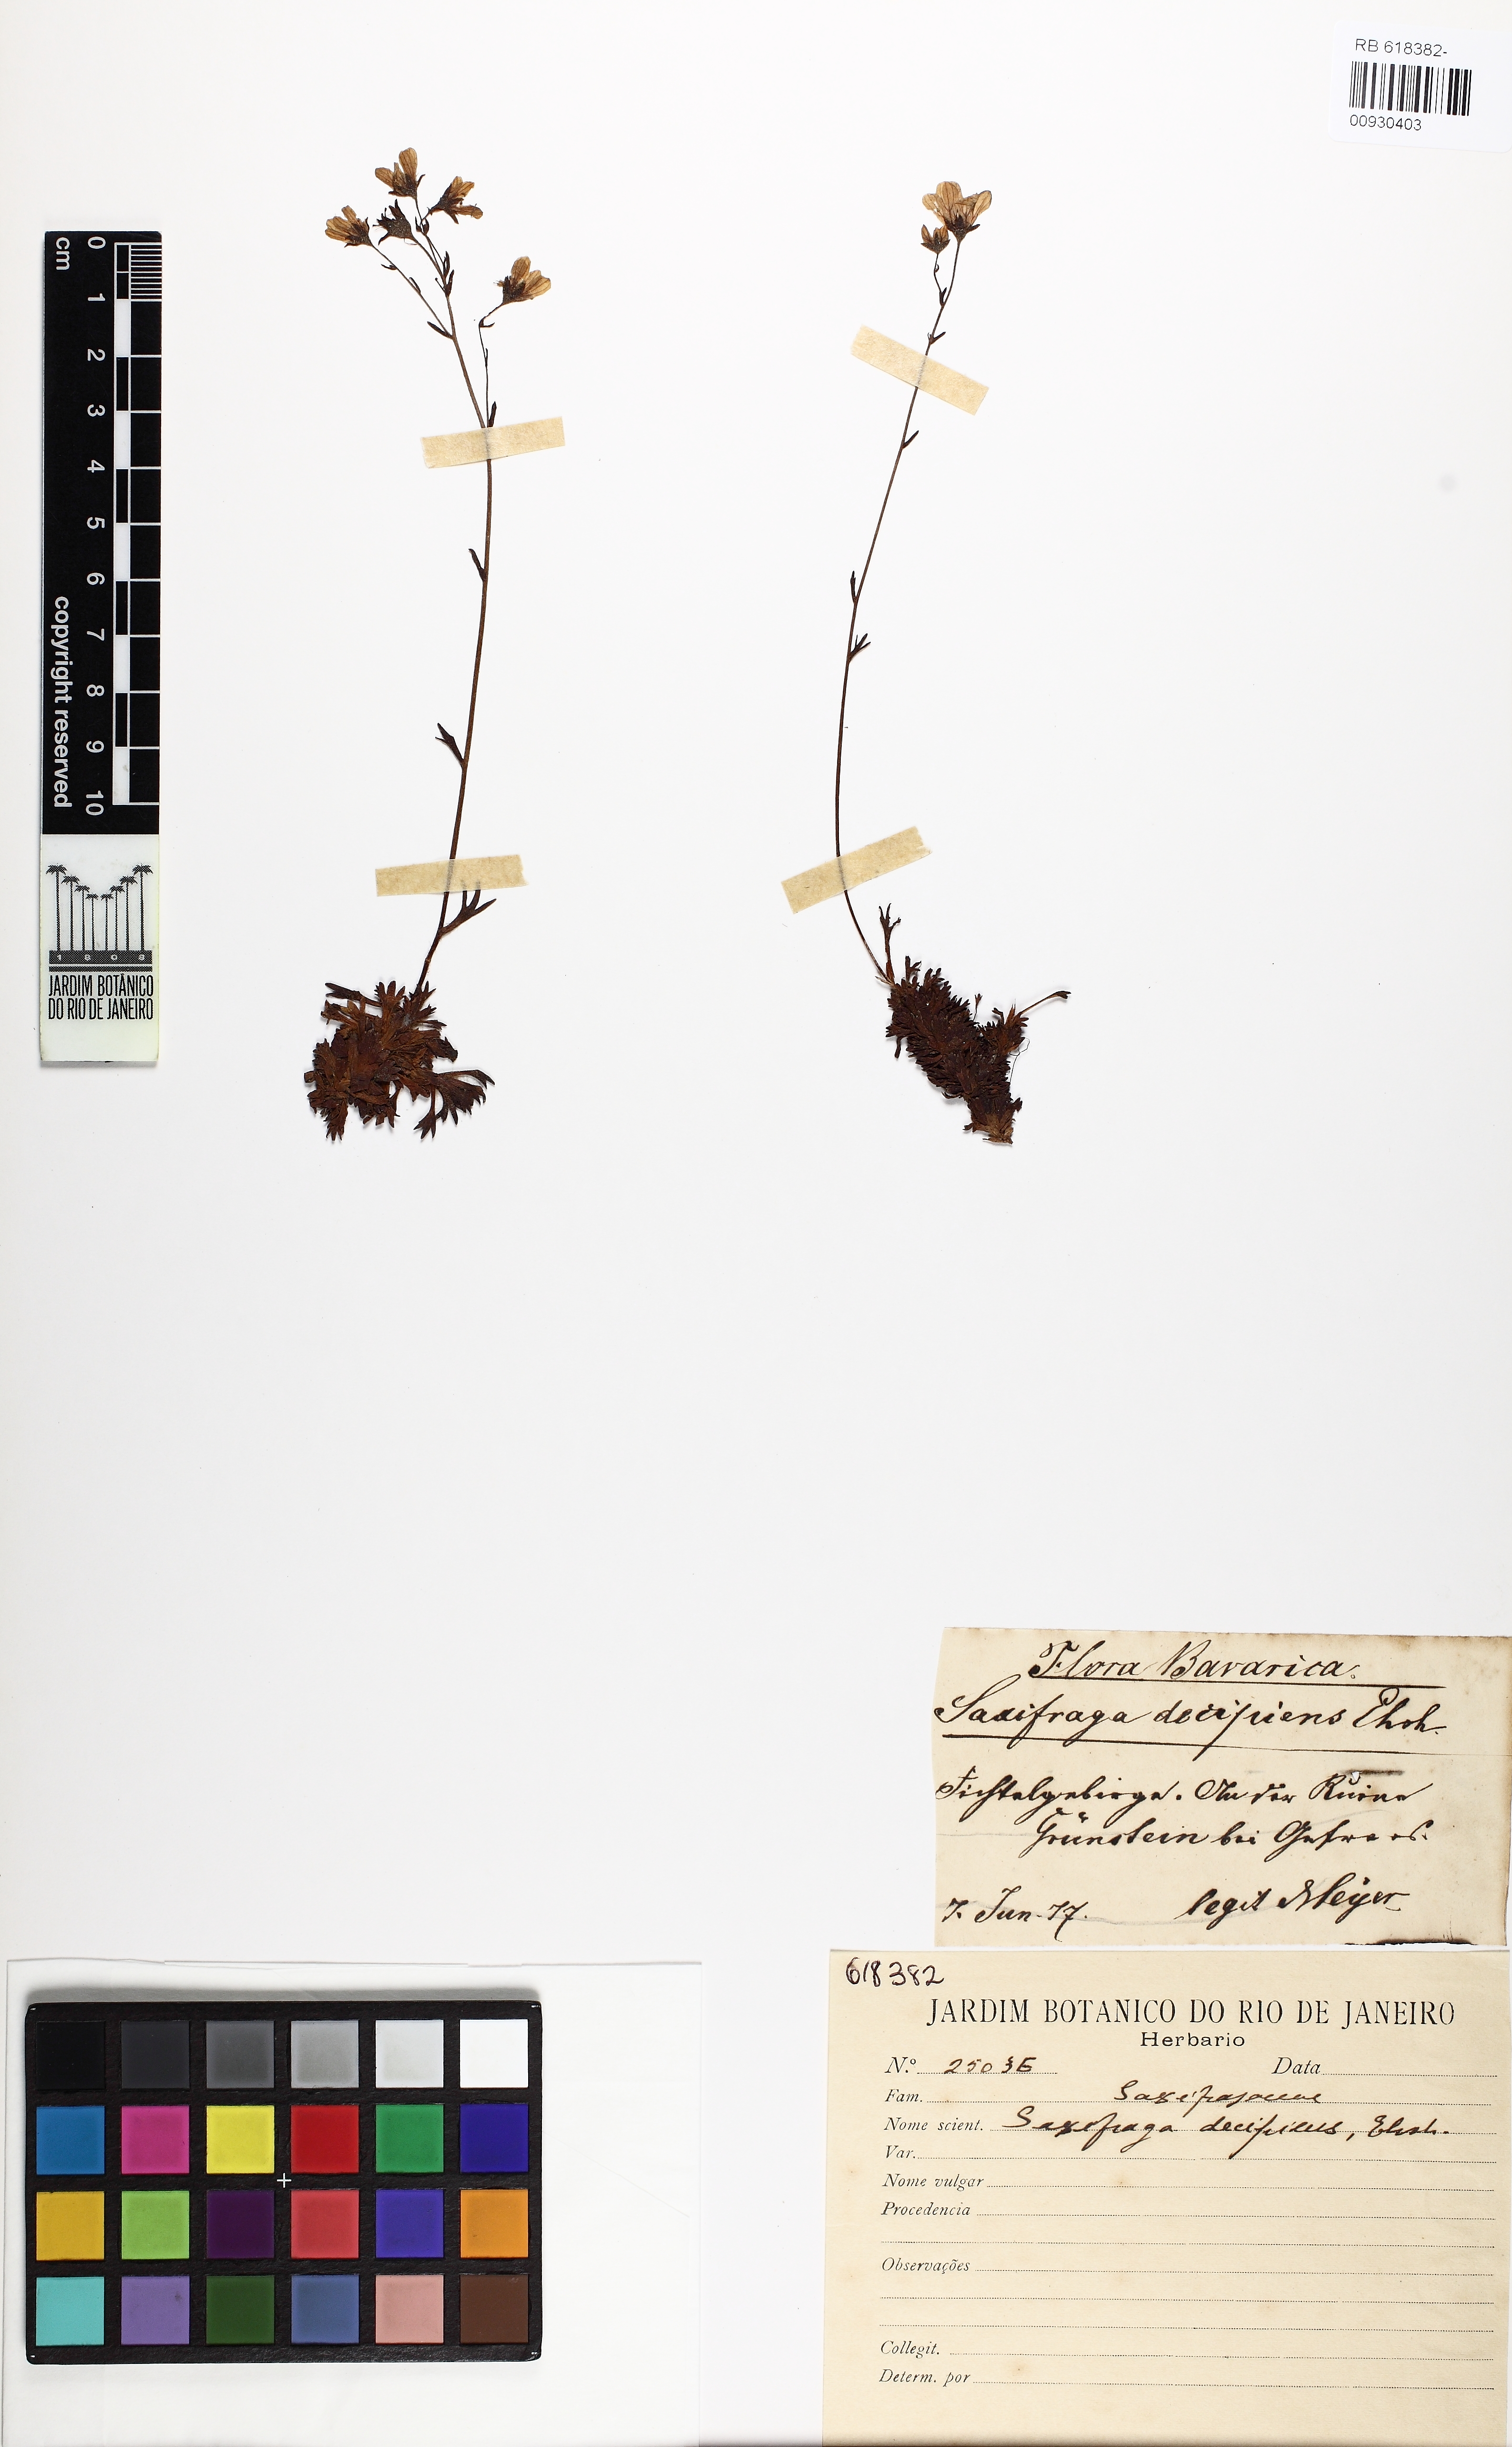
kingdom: Plantae
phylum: Tracheophyta
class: Magnoliopsida
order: Saxifragales
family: Saxifragaceae
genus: Saxifraga
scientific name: Saxifraga rosacea
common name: Irish saxifrage
